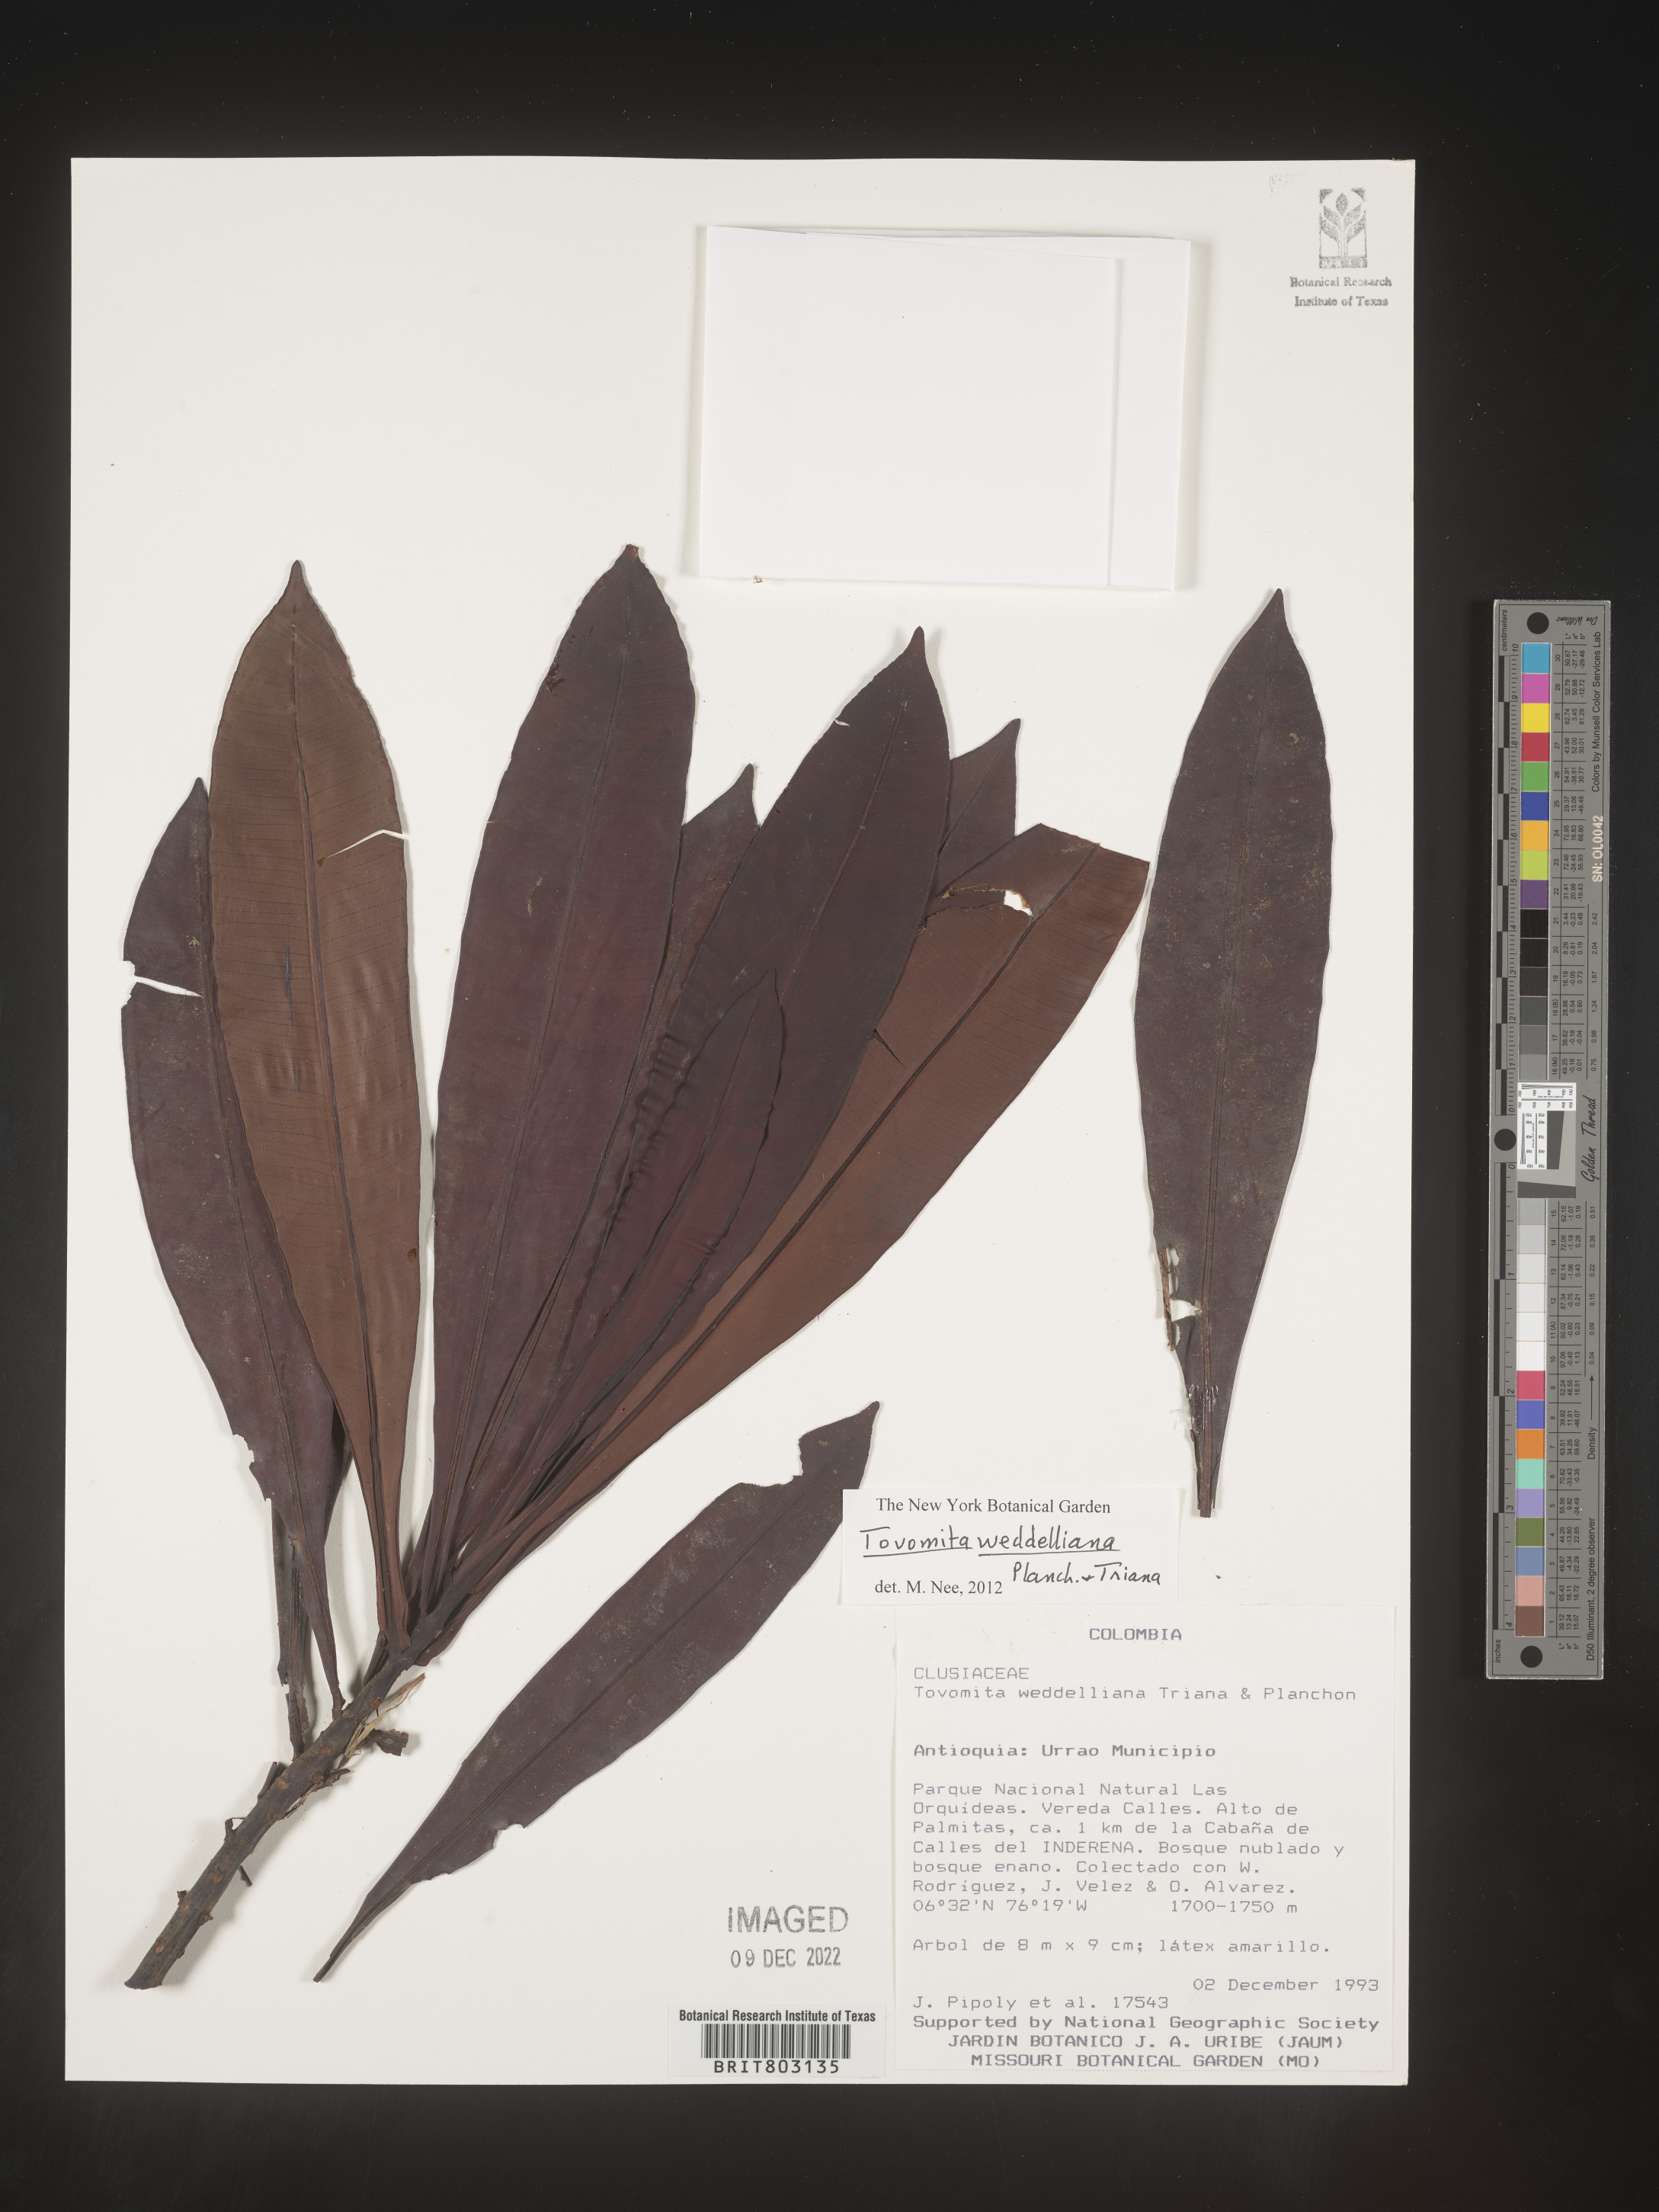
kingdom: Plantae
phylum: Tracheophyta
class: Magnoliopsida
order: Malpighiales
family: Clusiaceae
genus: Arawakia
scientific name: Arawakia weddelliana
